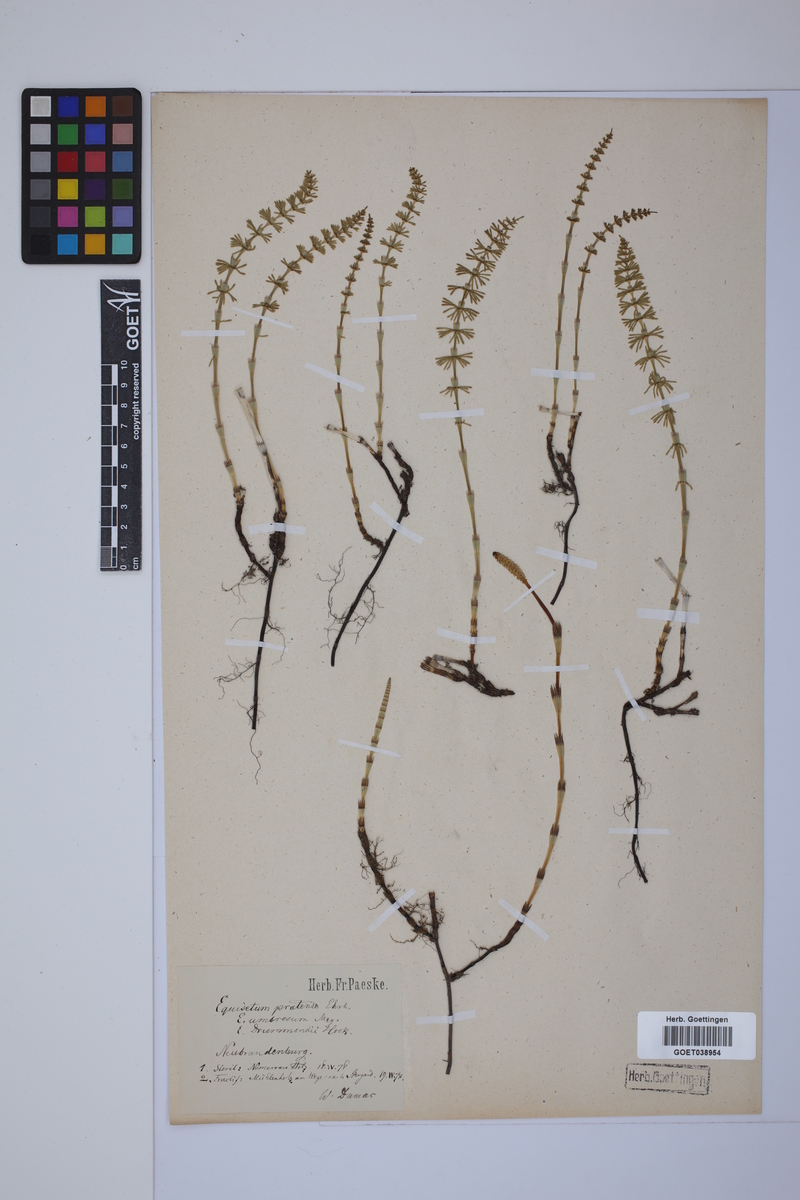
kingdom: Plantae
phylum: Tracheophyta
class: Polypodiopsida
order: Equisetales
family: Equisetaceae
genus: Equisetum
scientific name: Equisetum pratense
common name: Meadow horsetail
